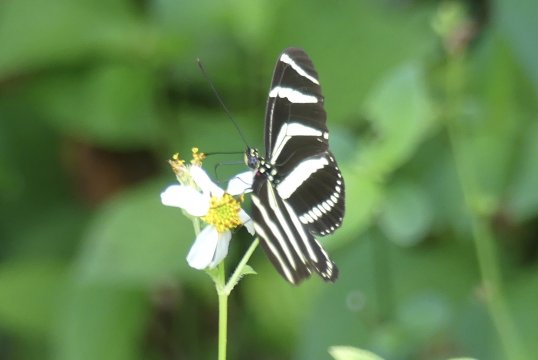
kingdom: Animalia
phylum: Arthropoda
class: Insecta
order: Lepidoptera
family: Nymphalidae
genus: Heliconius
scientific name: Heliconius charithonia
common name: Zebra Longwing
